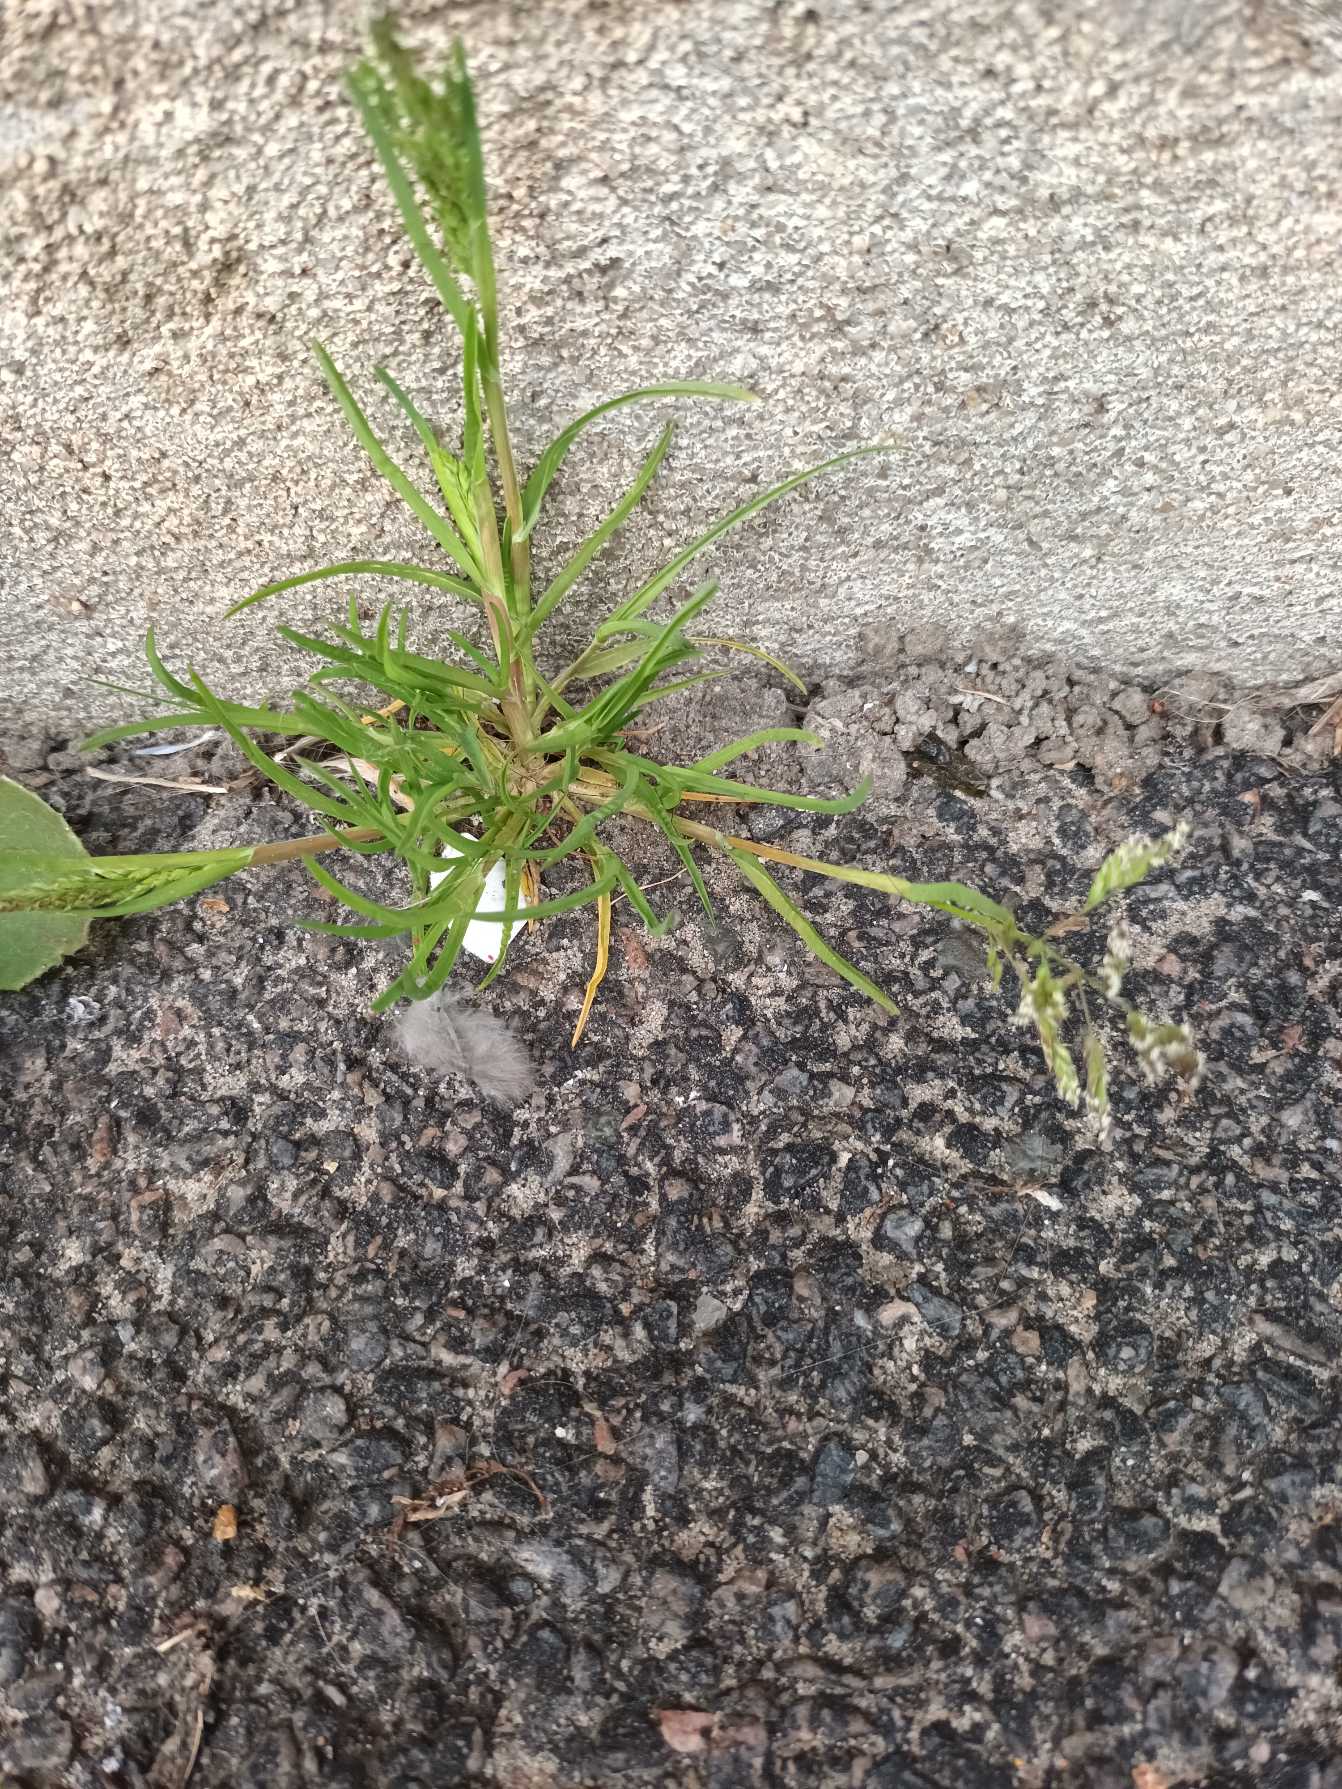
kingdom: Plantae
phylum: Tracheophyta
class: Liliopsida
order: Poales
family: Poaceae
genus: Poa
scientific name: Poa annua
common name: Enårig rapgræs
